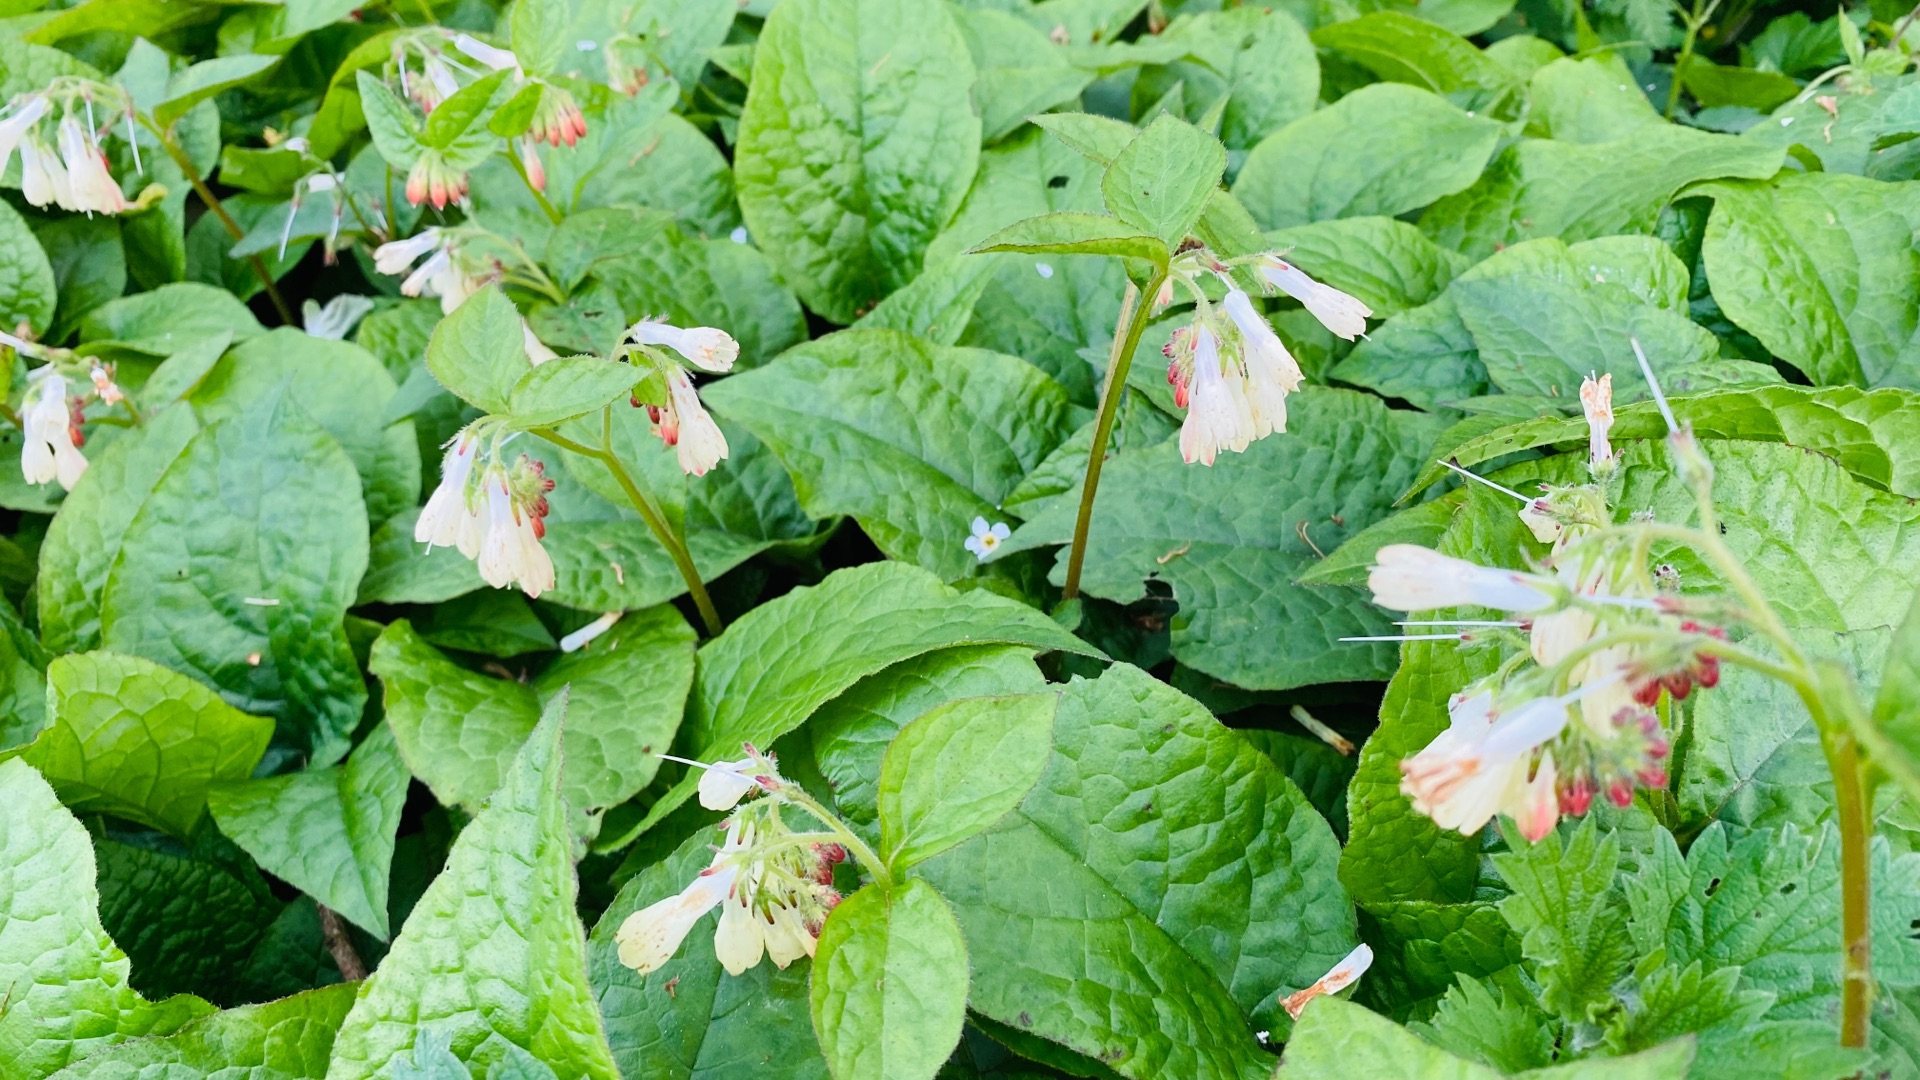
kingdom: Plantae
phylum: Tracheophyta
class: Magnoliopsida
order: Boraginales
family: Boraginaceae
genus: Symphytum
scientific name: Symphytum hidcotense
